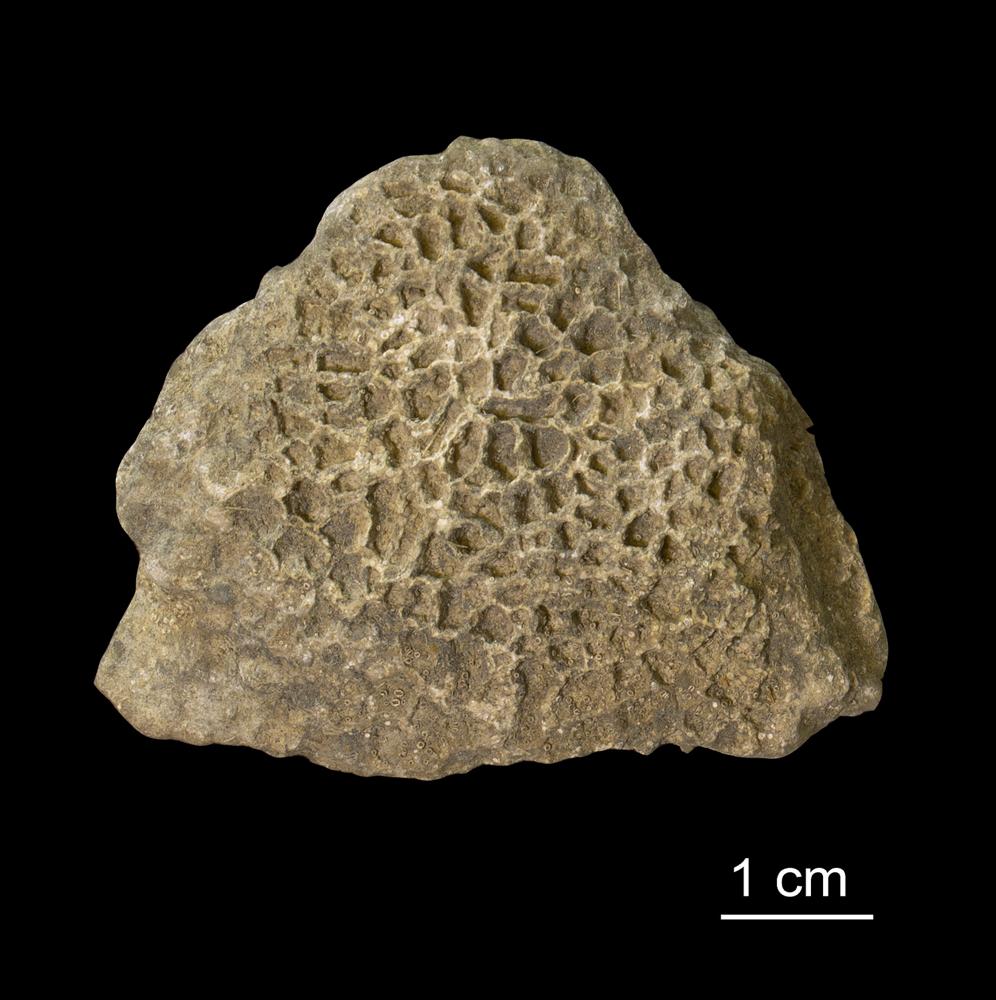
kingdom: Animalia
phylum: Cnidaria
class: Anthozoa
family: Halysitidae
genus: Halysites
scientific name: Halysites
